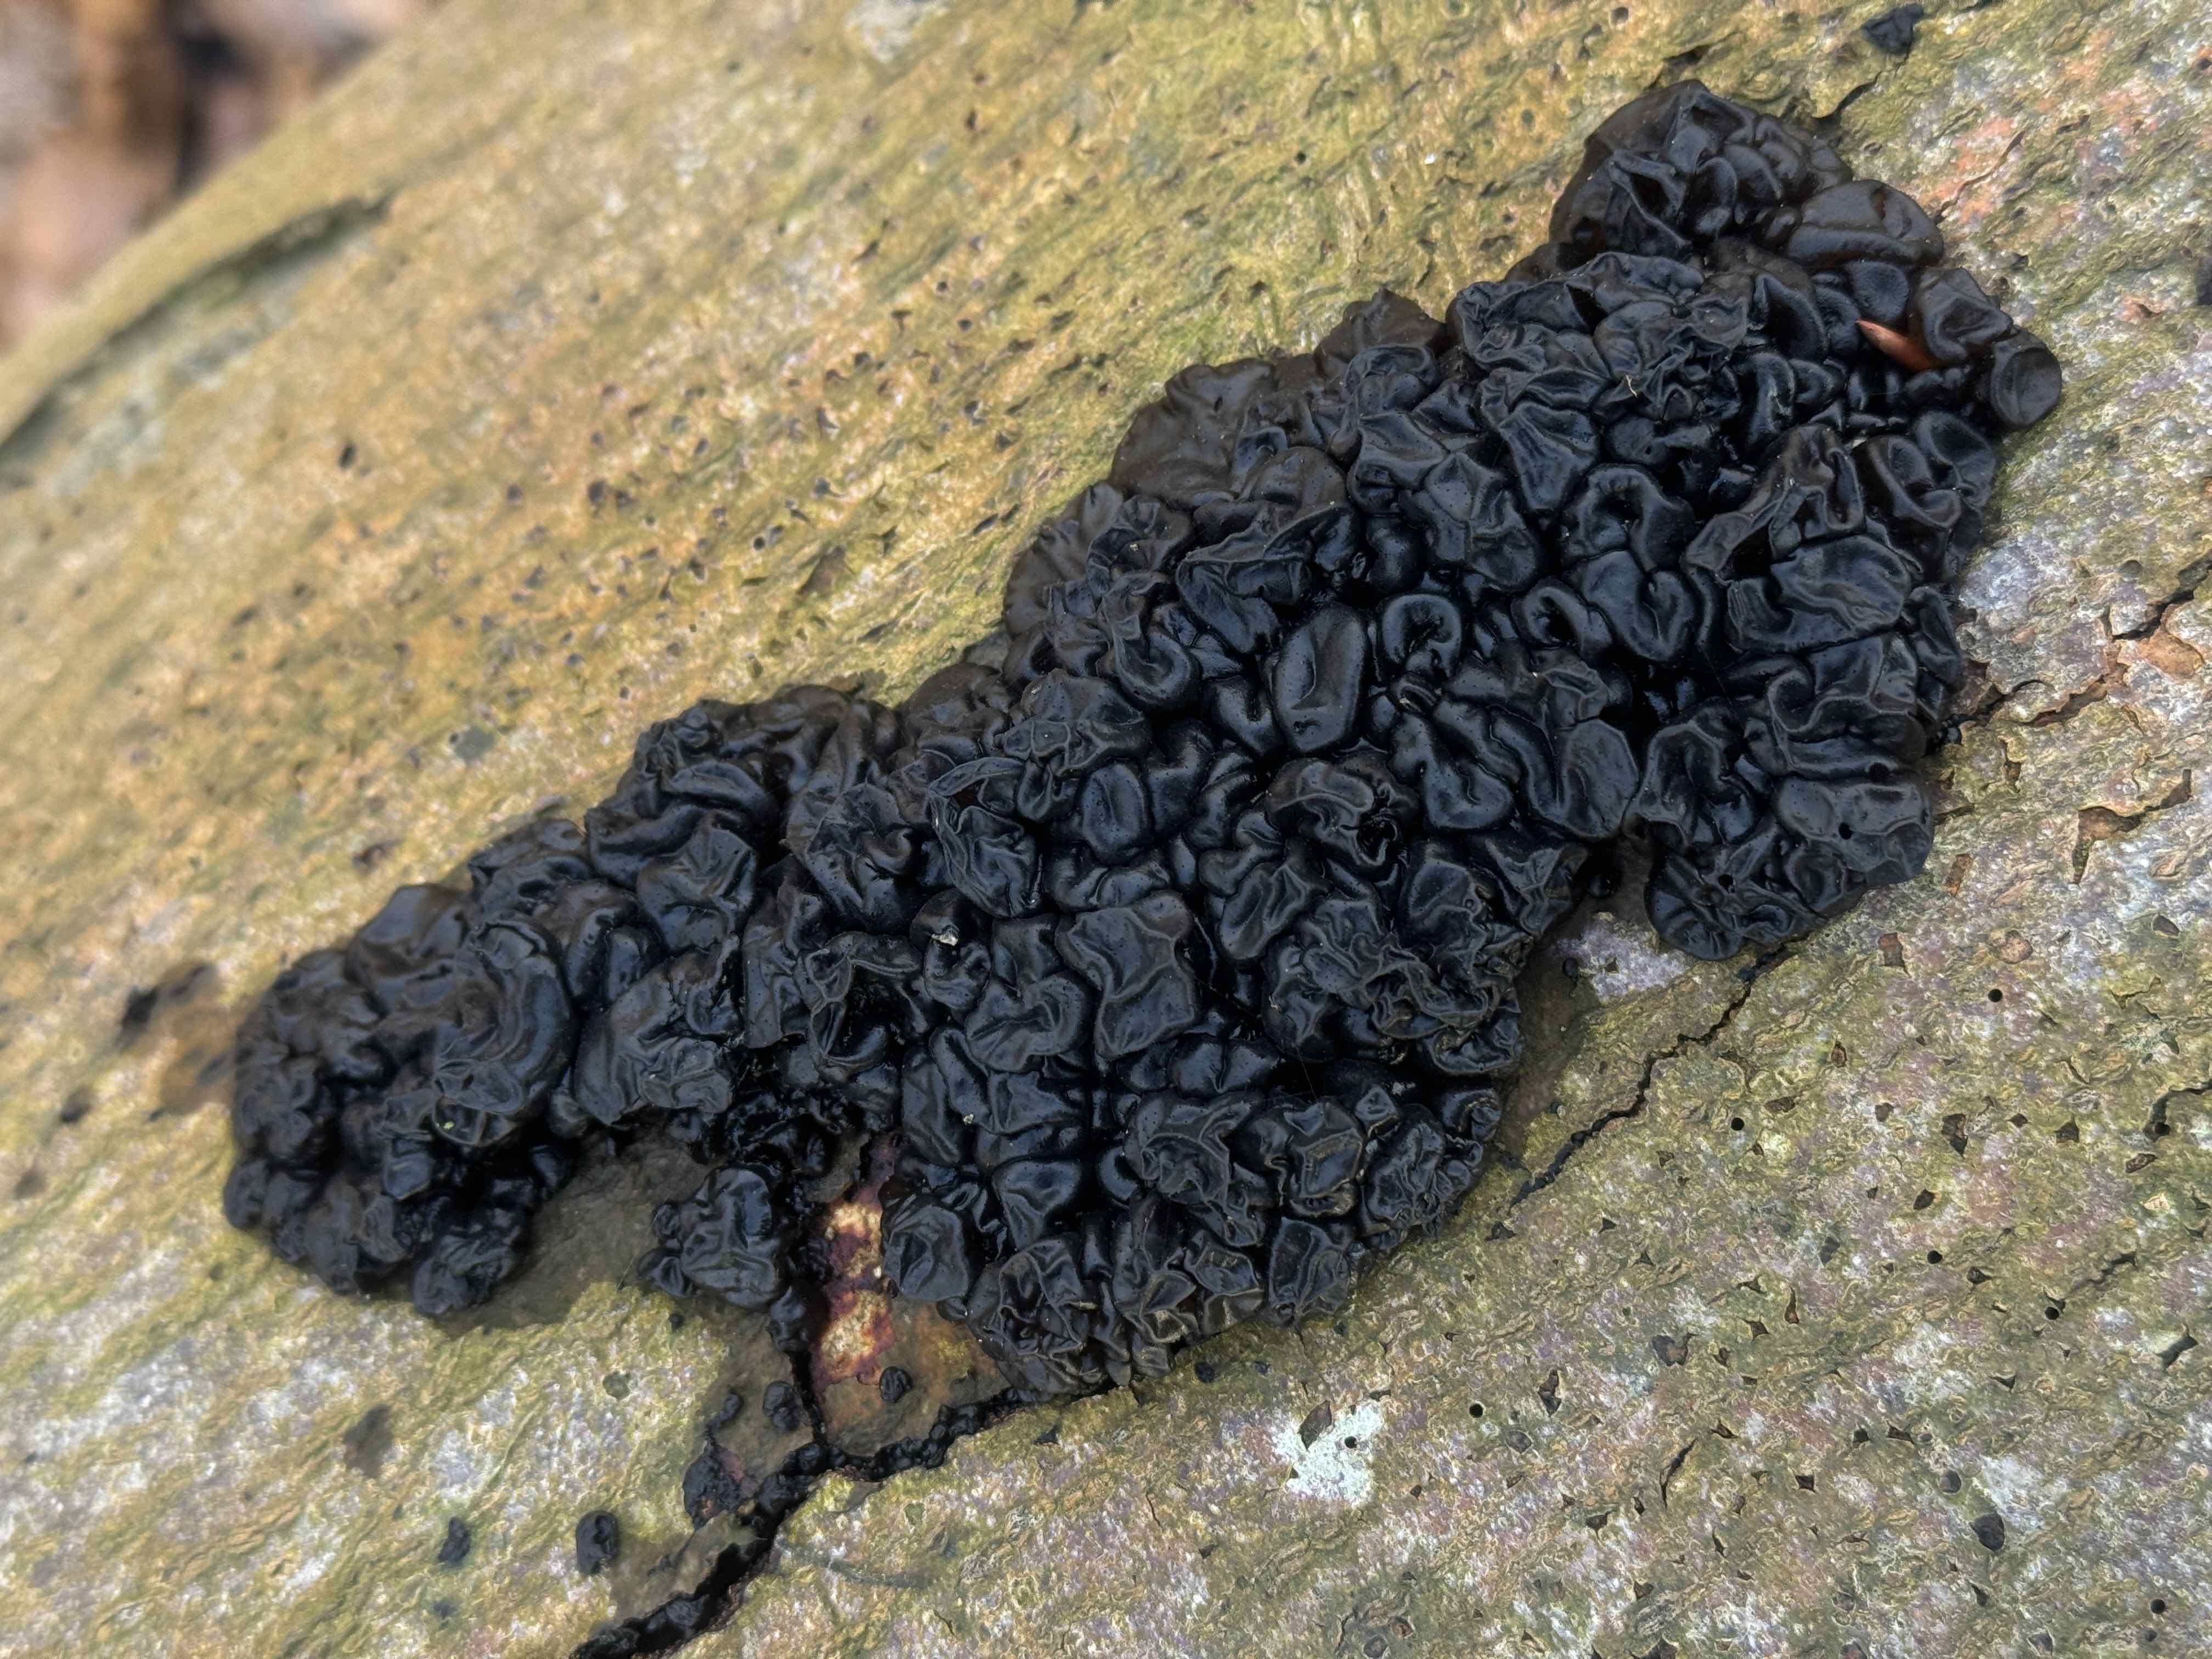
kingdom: Fungi
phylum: Basidiomycota
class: Agaricomycetes
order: Auriculariales
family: Auriculariaceae
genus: Exidia
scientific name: Exidia nigricans
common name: almindelig bævretop
